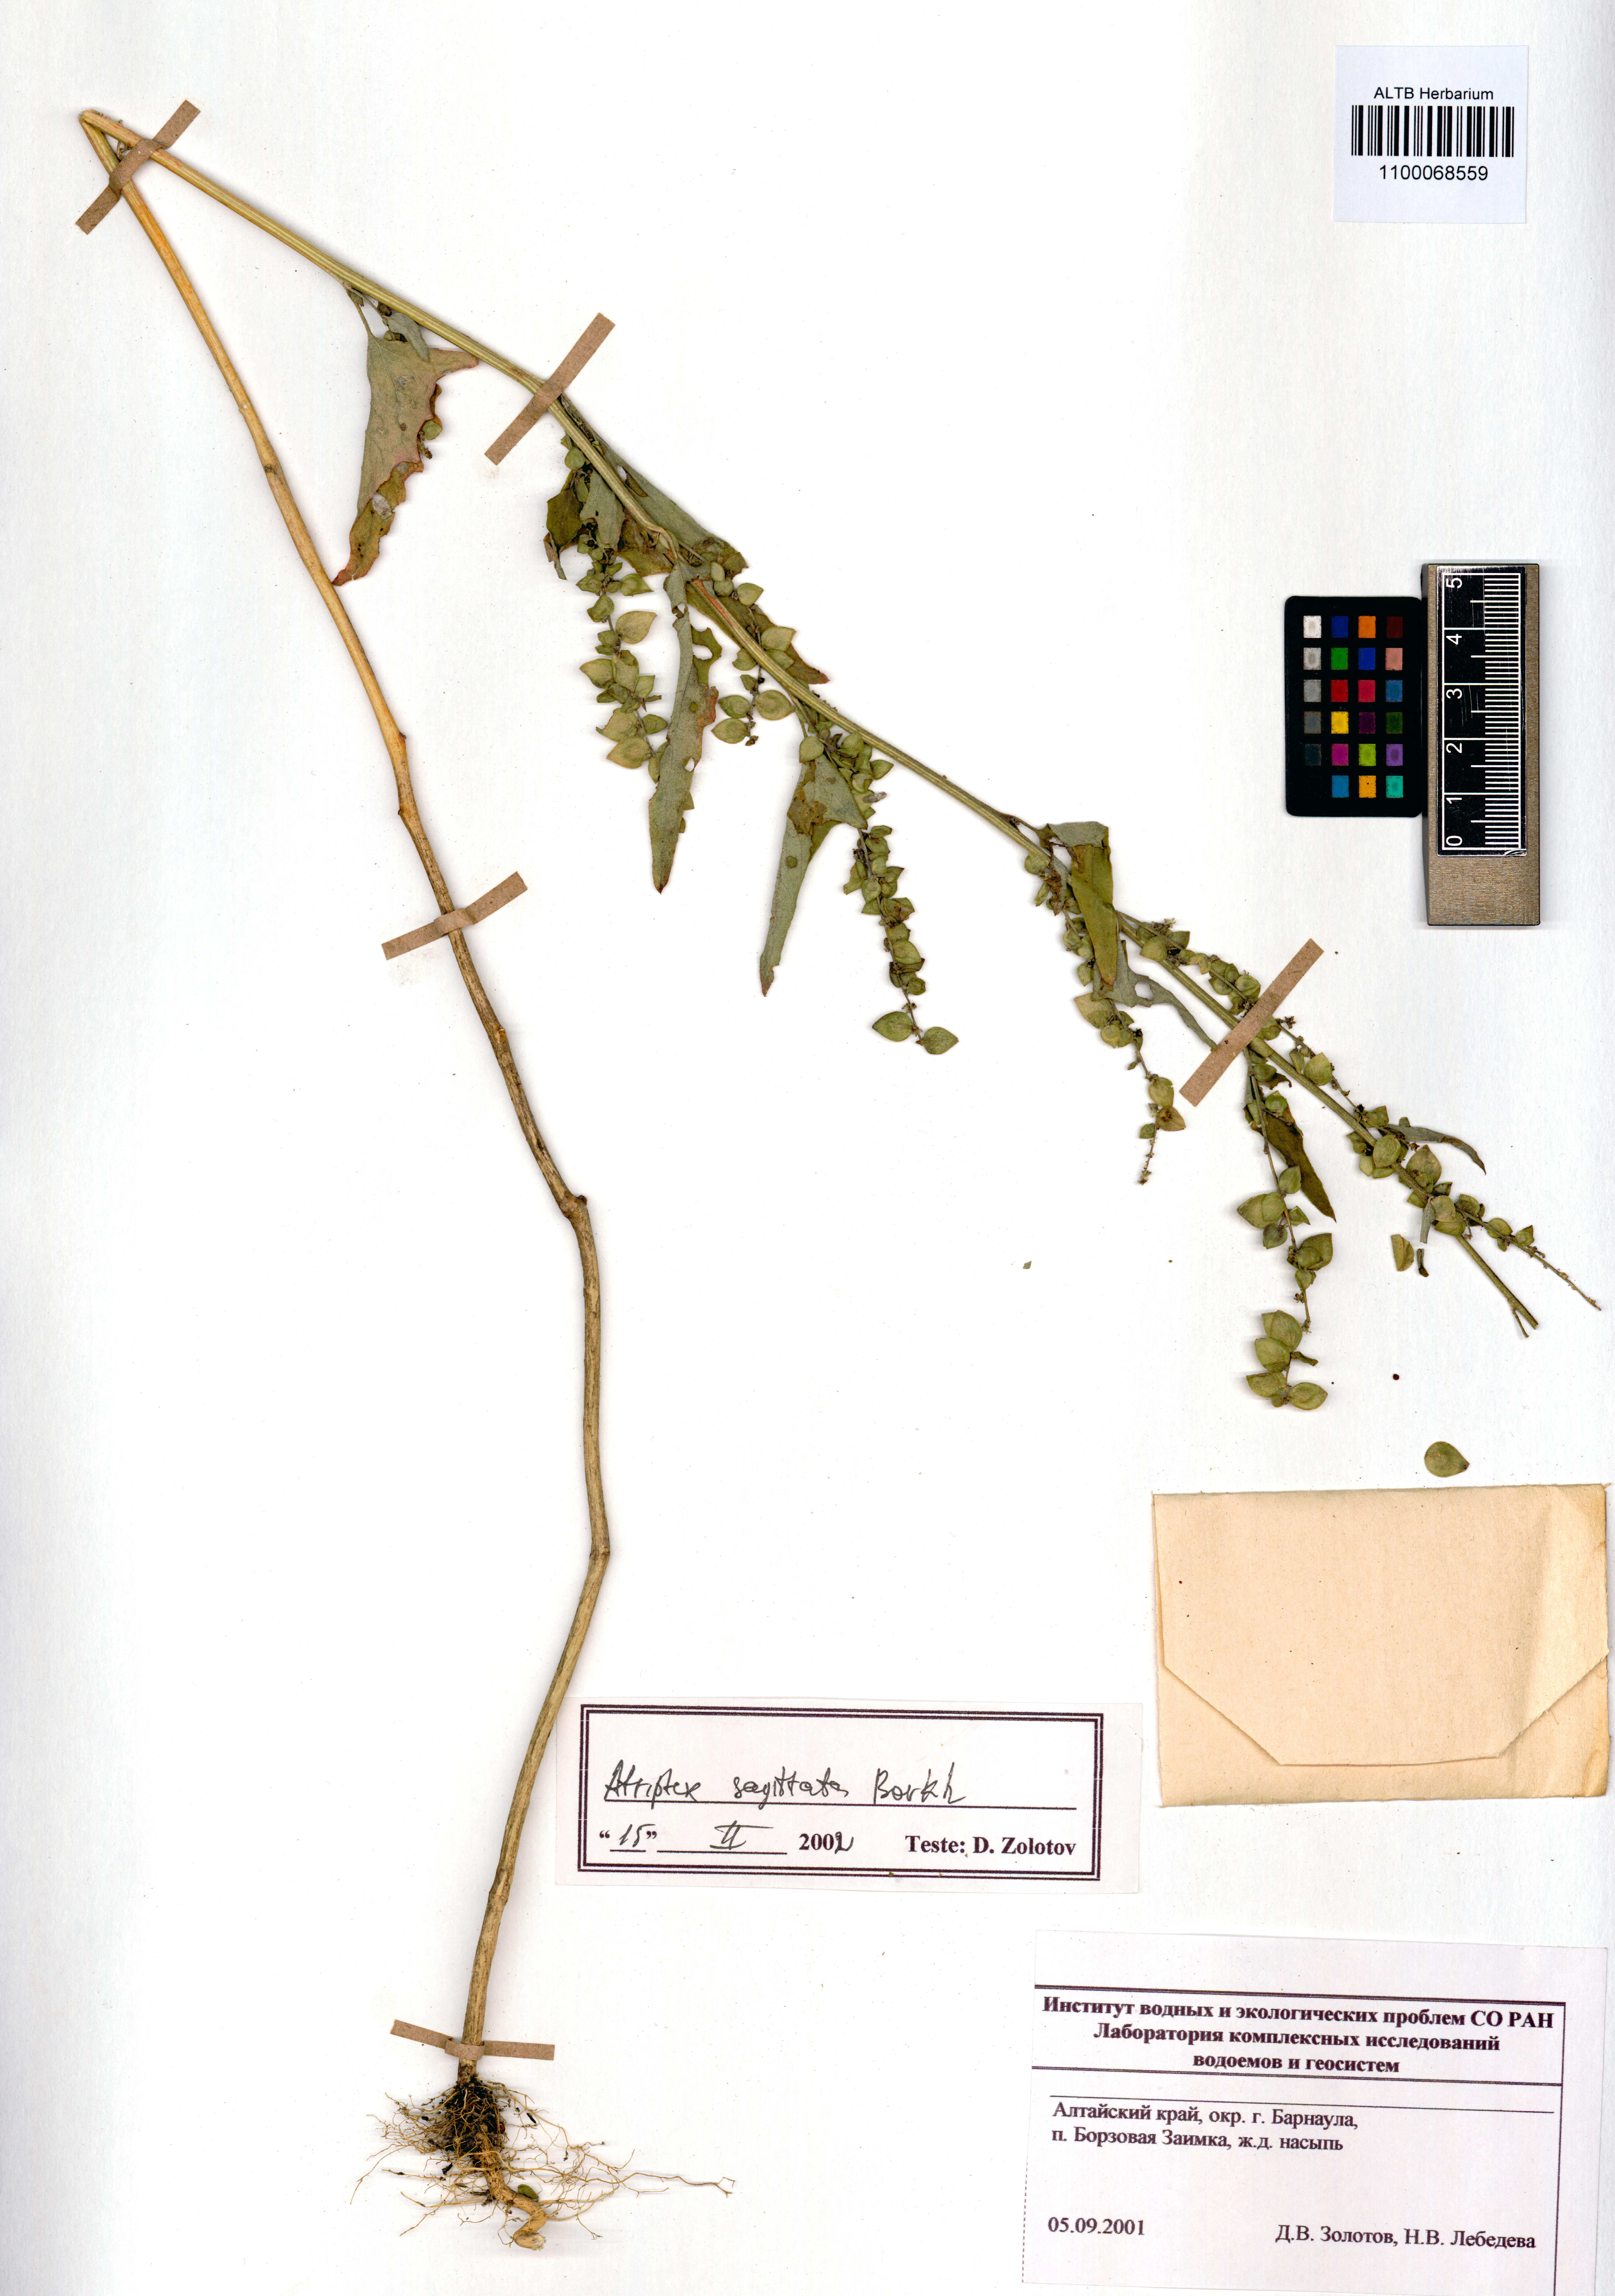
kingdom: Plantae
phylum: Tracheophyta
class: Magnoliopsida
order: Caryophyllales
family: Amaranthaceae
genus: Atriplex
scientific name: Atriplex sagittata
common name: Purple orache
